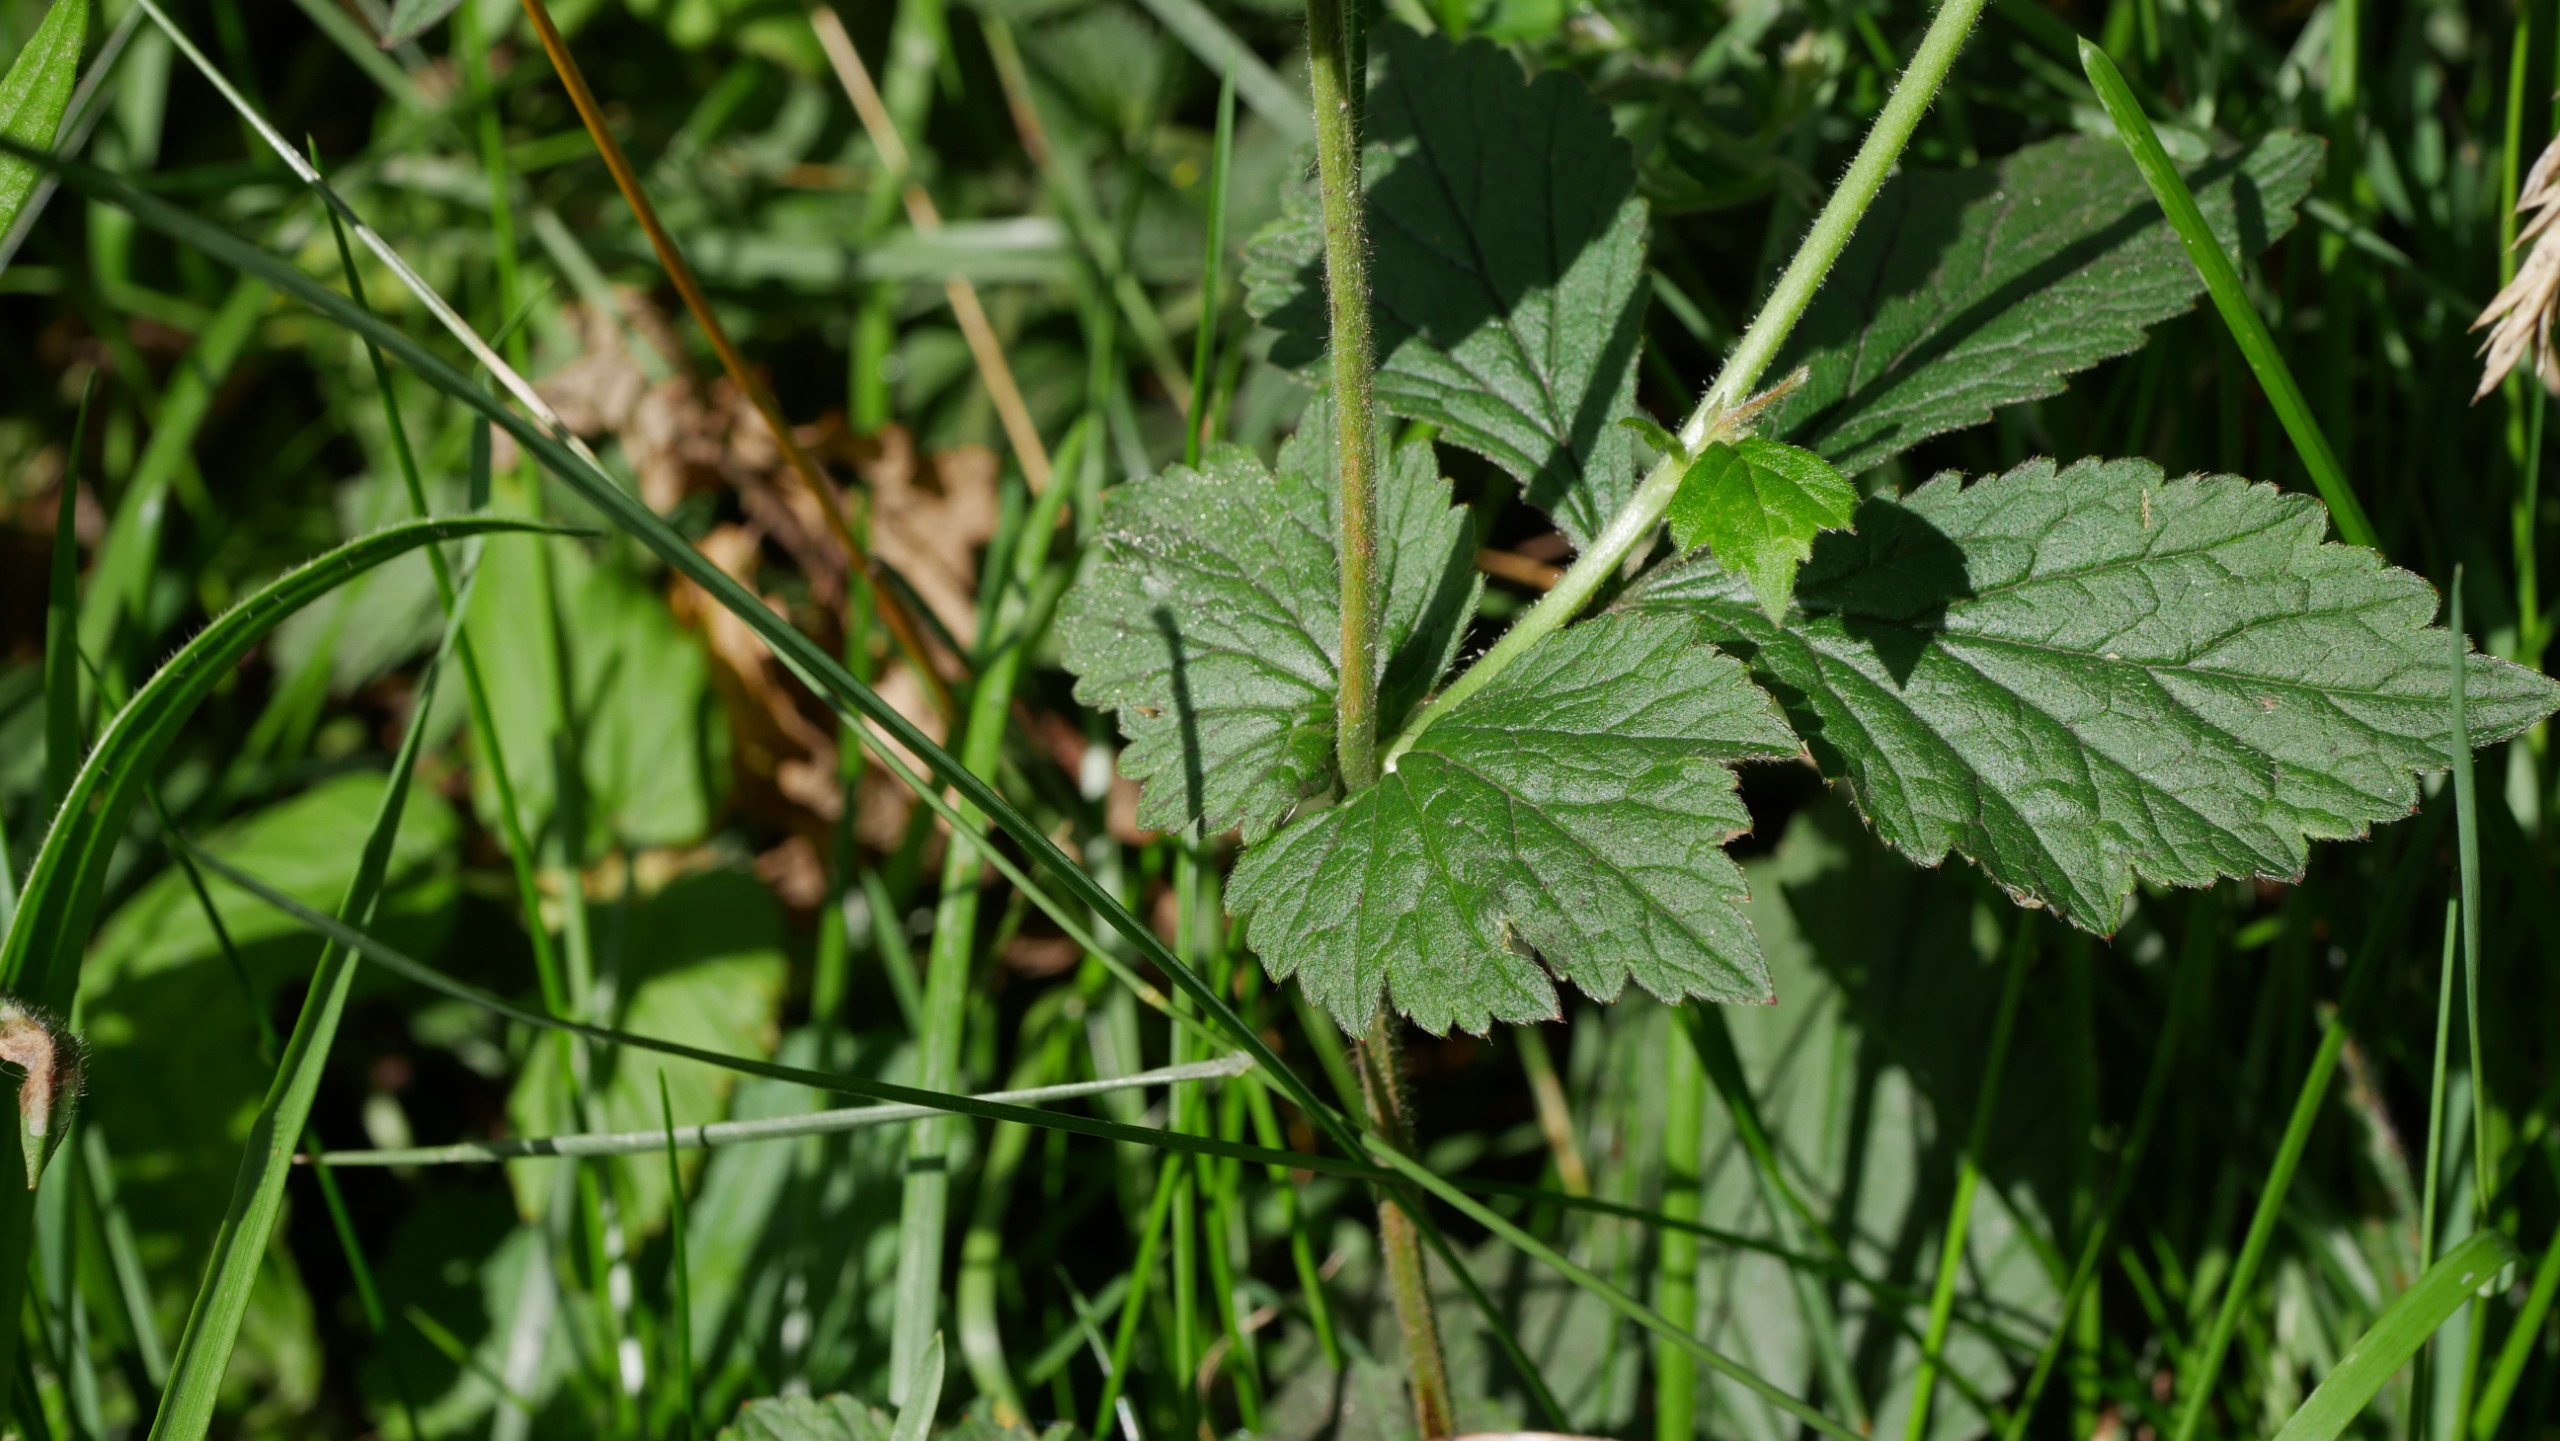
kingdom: Plantae
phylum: Tracheophyta
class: Magnoliopsida
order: Rosales
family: Rosaceae
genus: Geum
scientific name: Geum urbanum
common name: Feber-nellikerod
